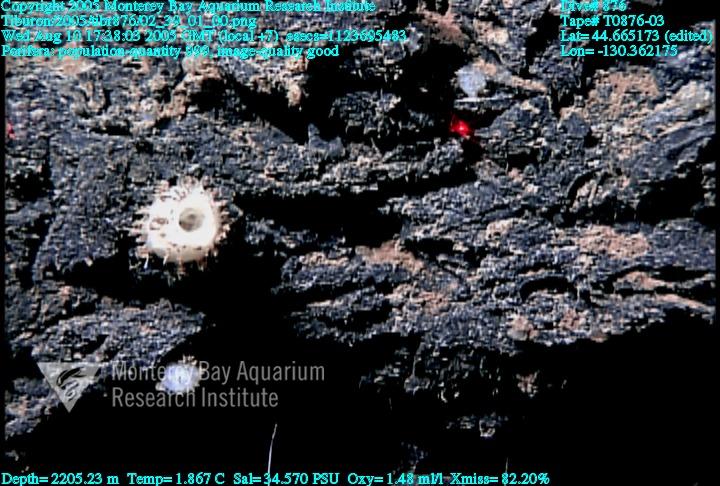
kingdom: Animalia
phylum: Porifera
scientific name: Porifera
